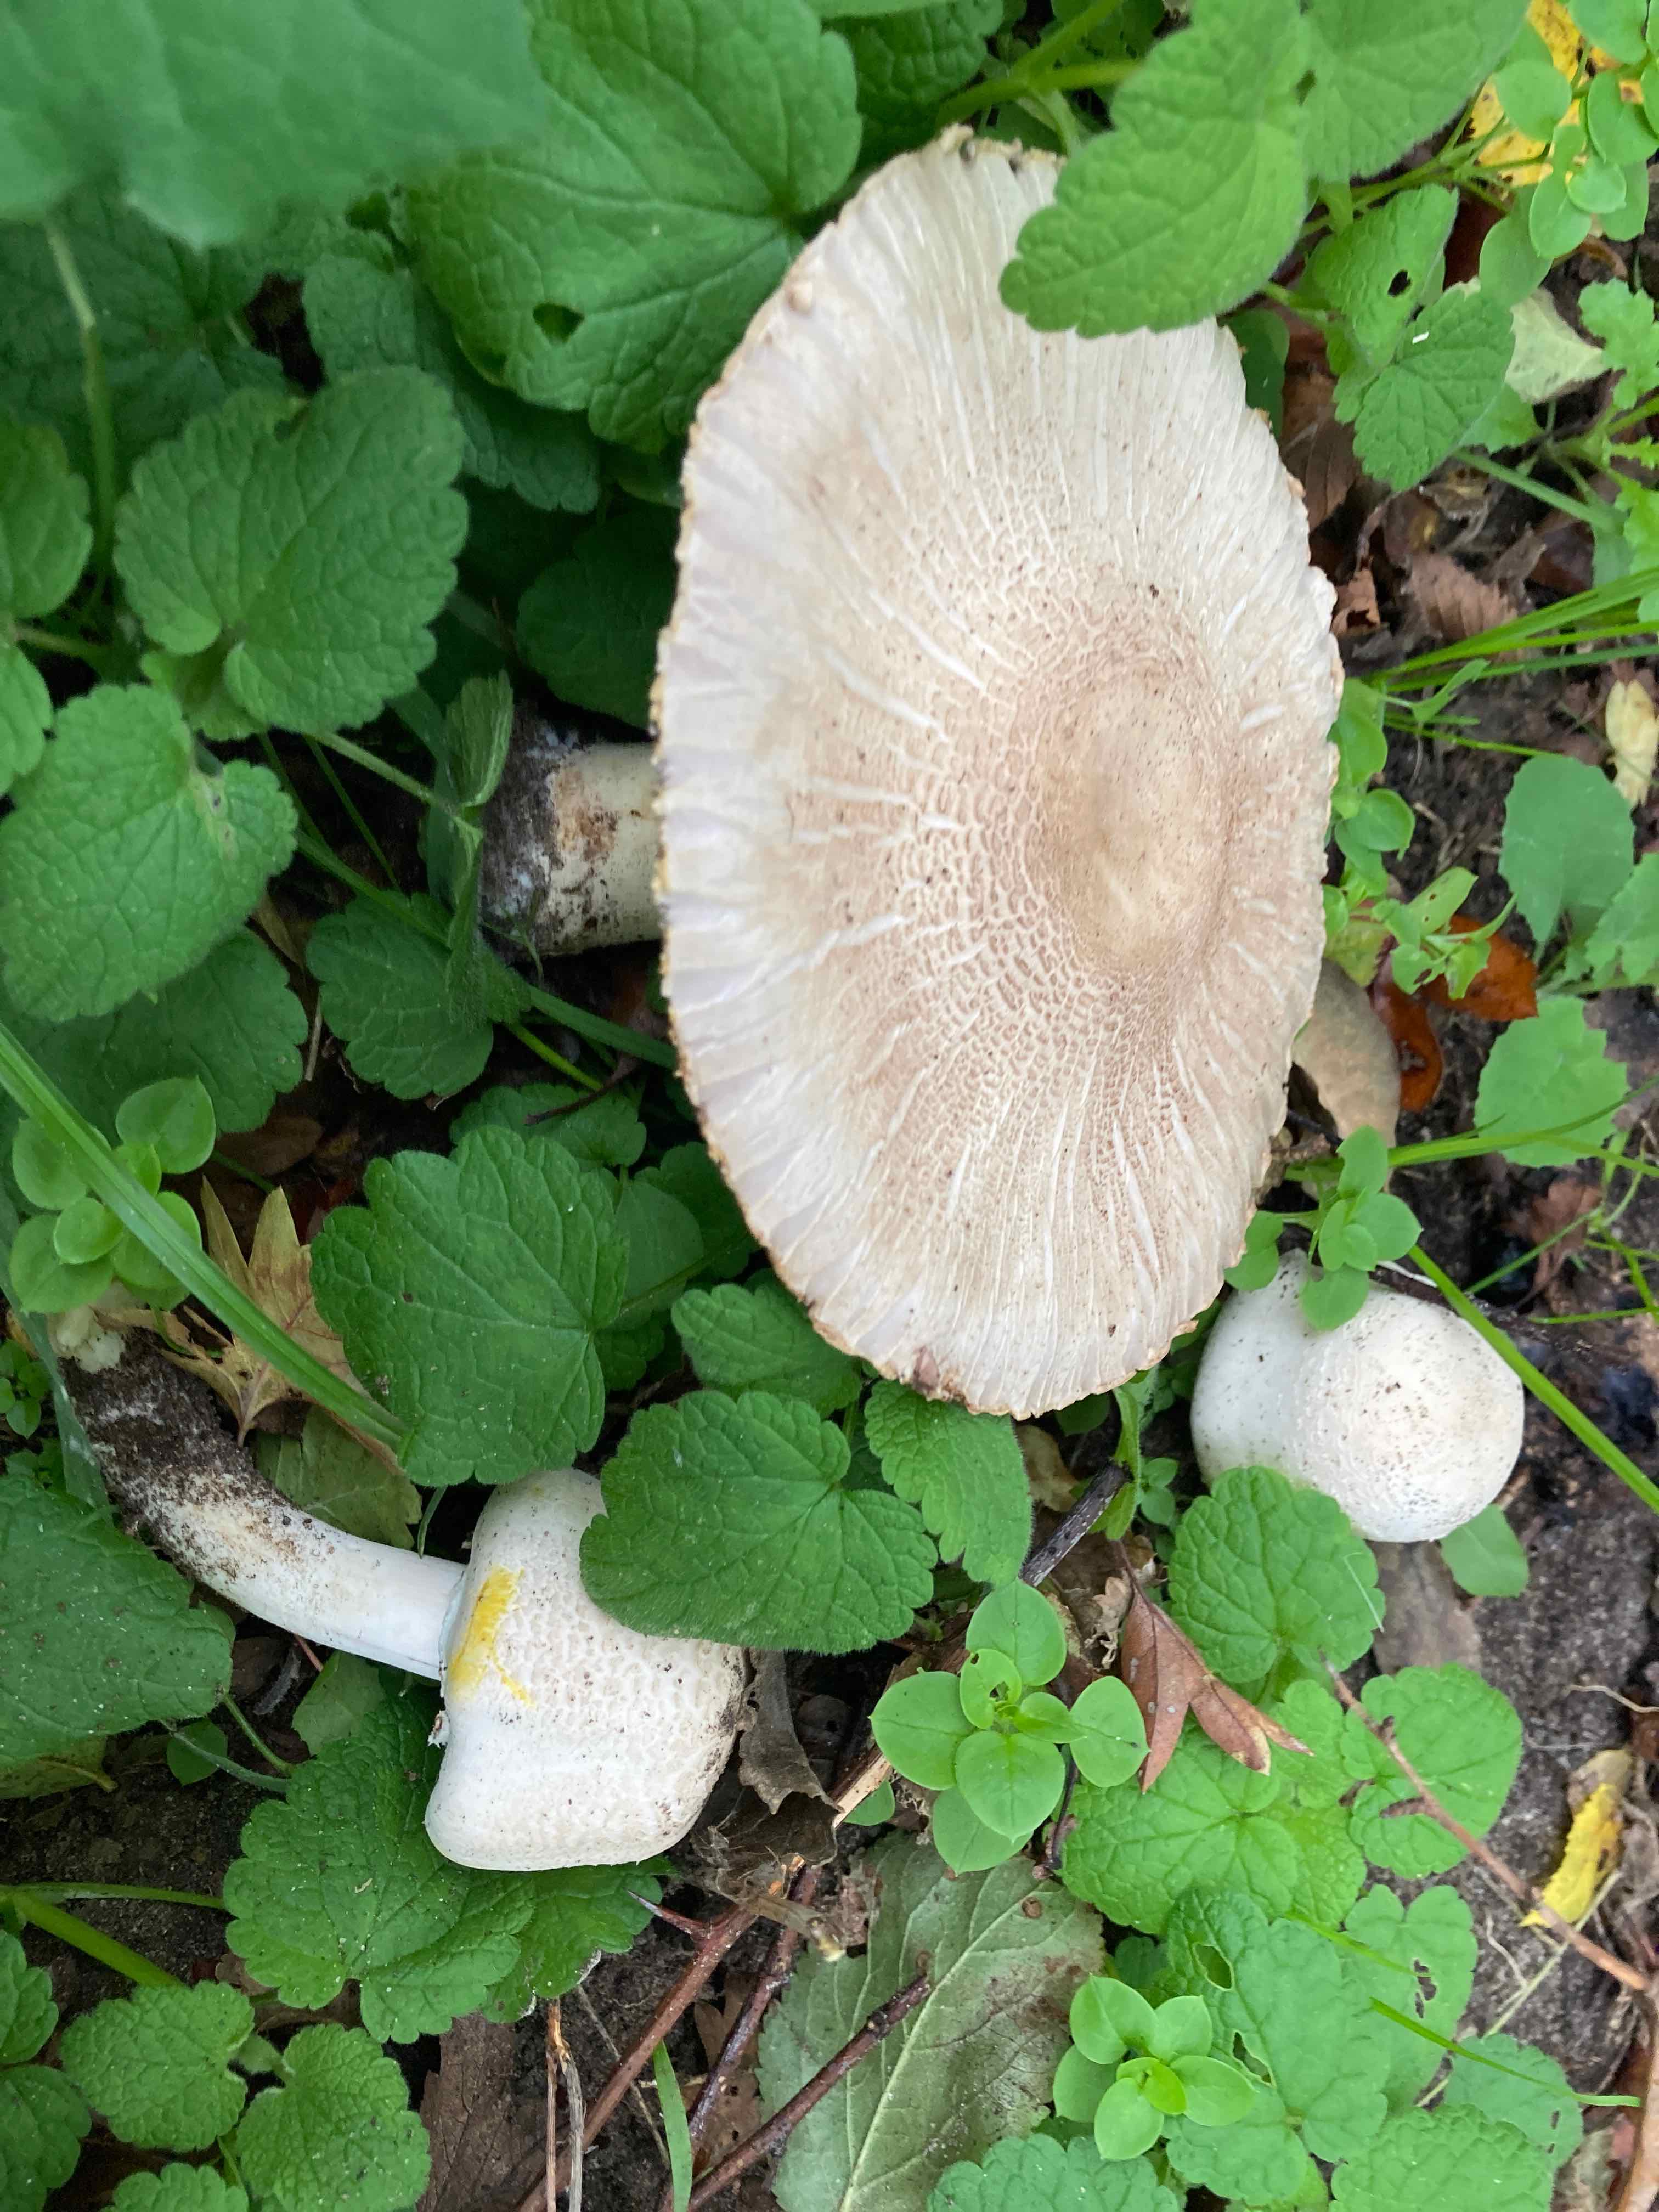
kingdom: Fungi
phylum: Basidiomycota
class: Agaricomycetes
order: Agaricales
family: Agaricaceae
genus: Agaricus
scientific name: Agaricus xanthodermus
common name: karbol-champignon
